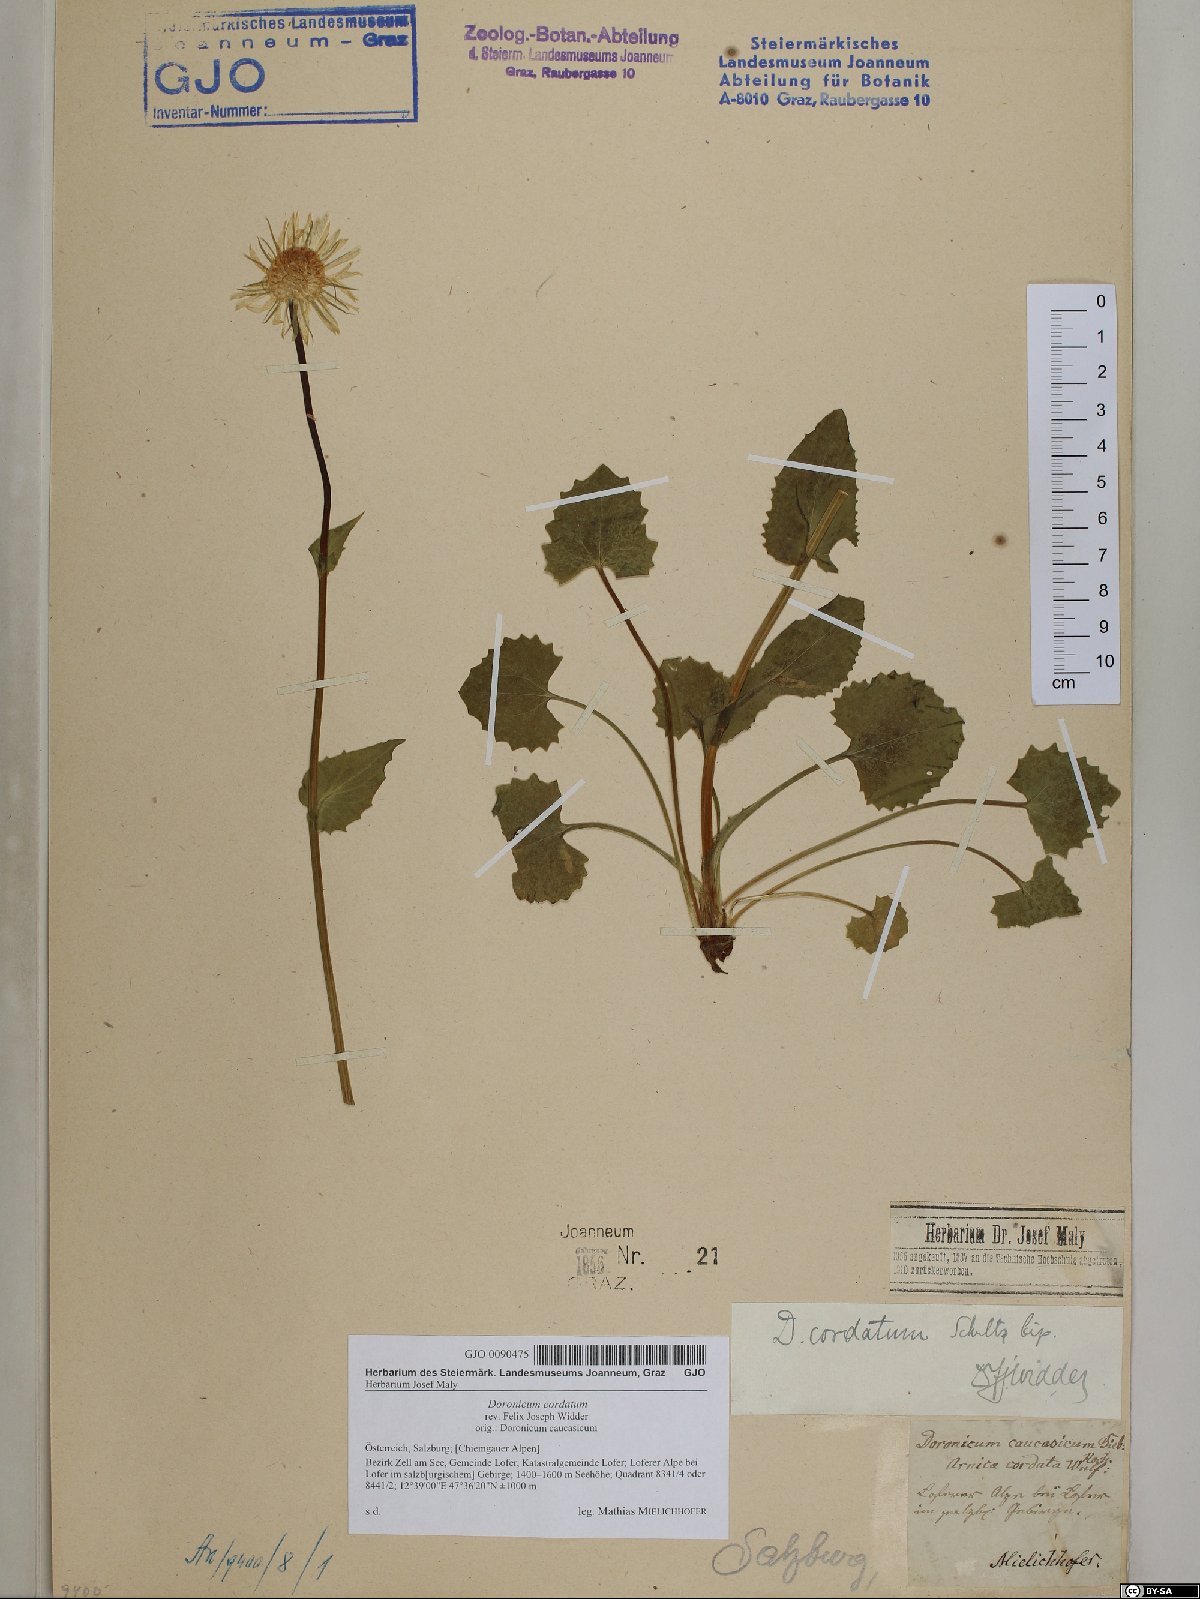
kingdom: Plantae
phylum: Tracheophyta
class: Magnoliopsida
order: Asterales
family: Asteraceae
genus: Doronicum
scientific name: Doronicum columnae
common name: Eastern leopard's-bane
